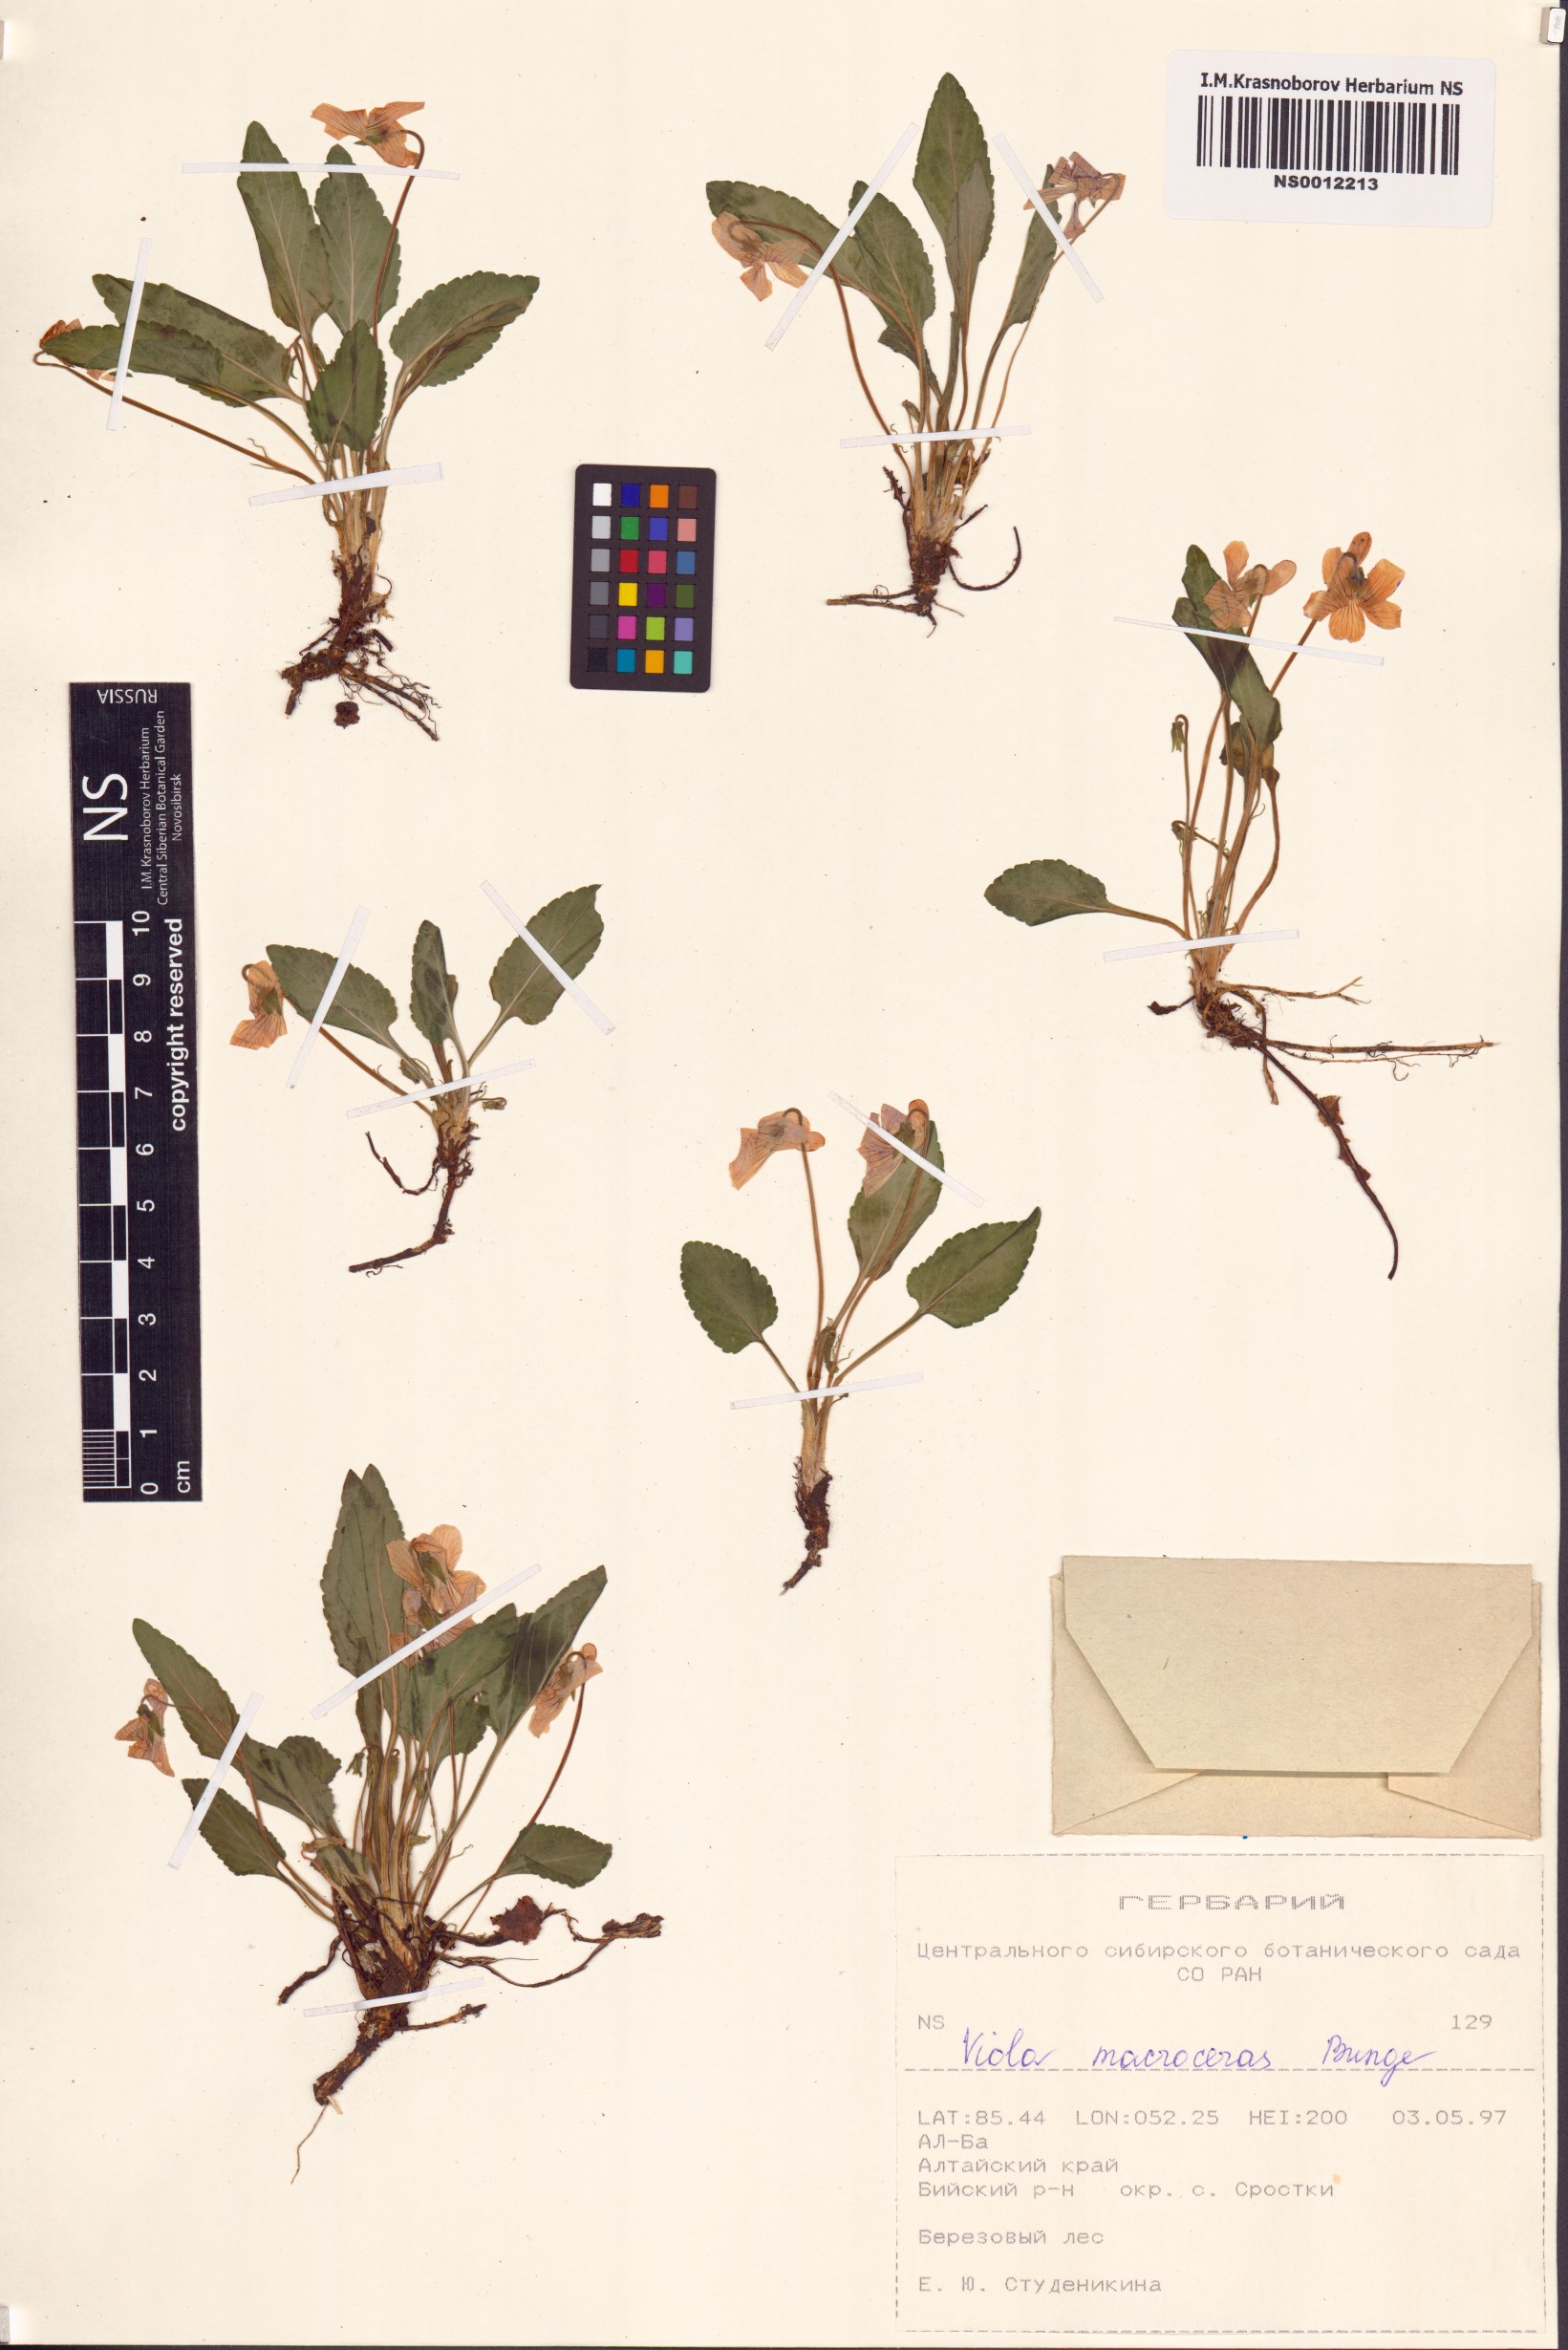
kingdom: Plantae
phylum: Tracheophyta
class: Magnoliopsida
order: Malpighiales
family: Violaceae
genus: Viola
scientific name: Viola macroceras
